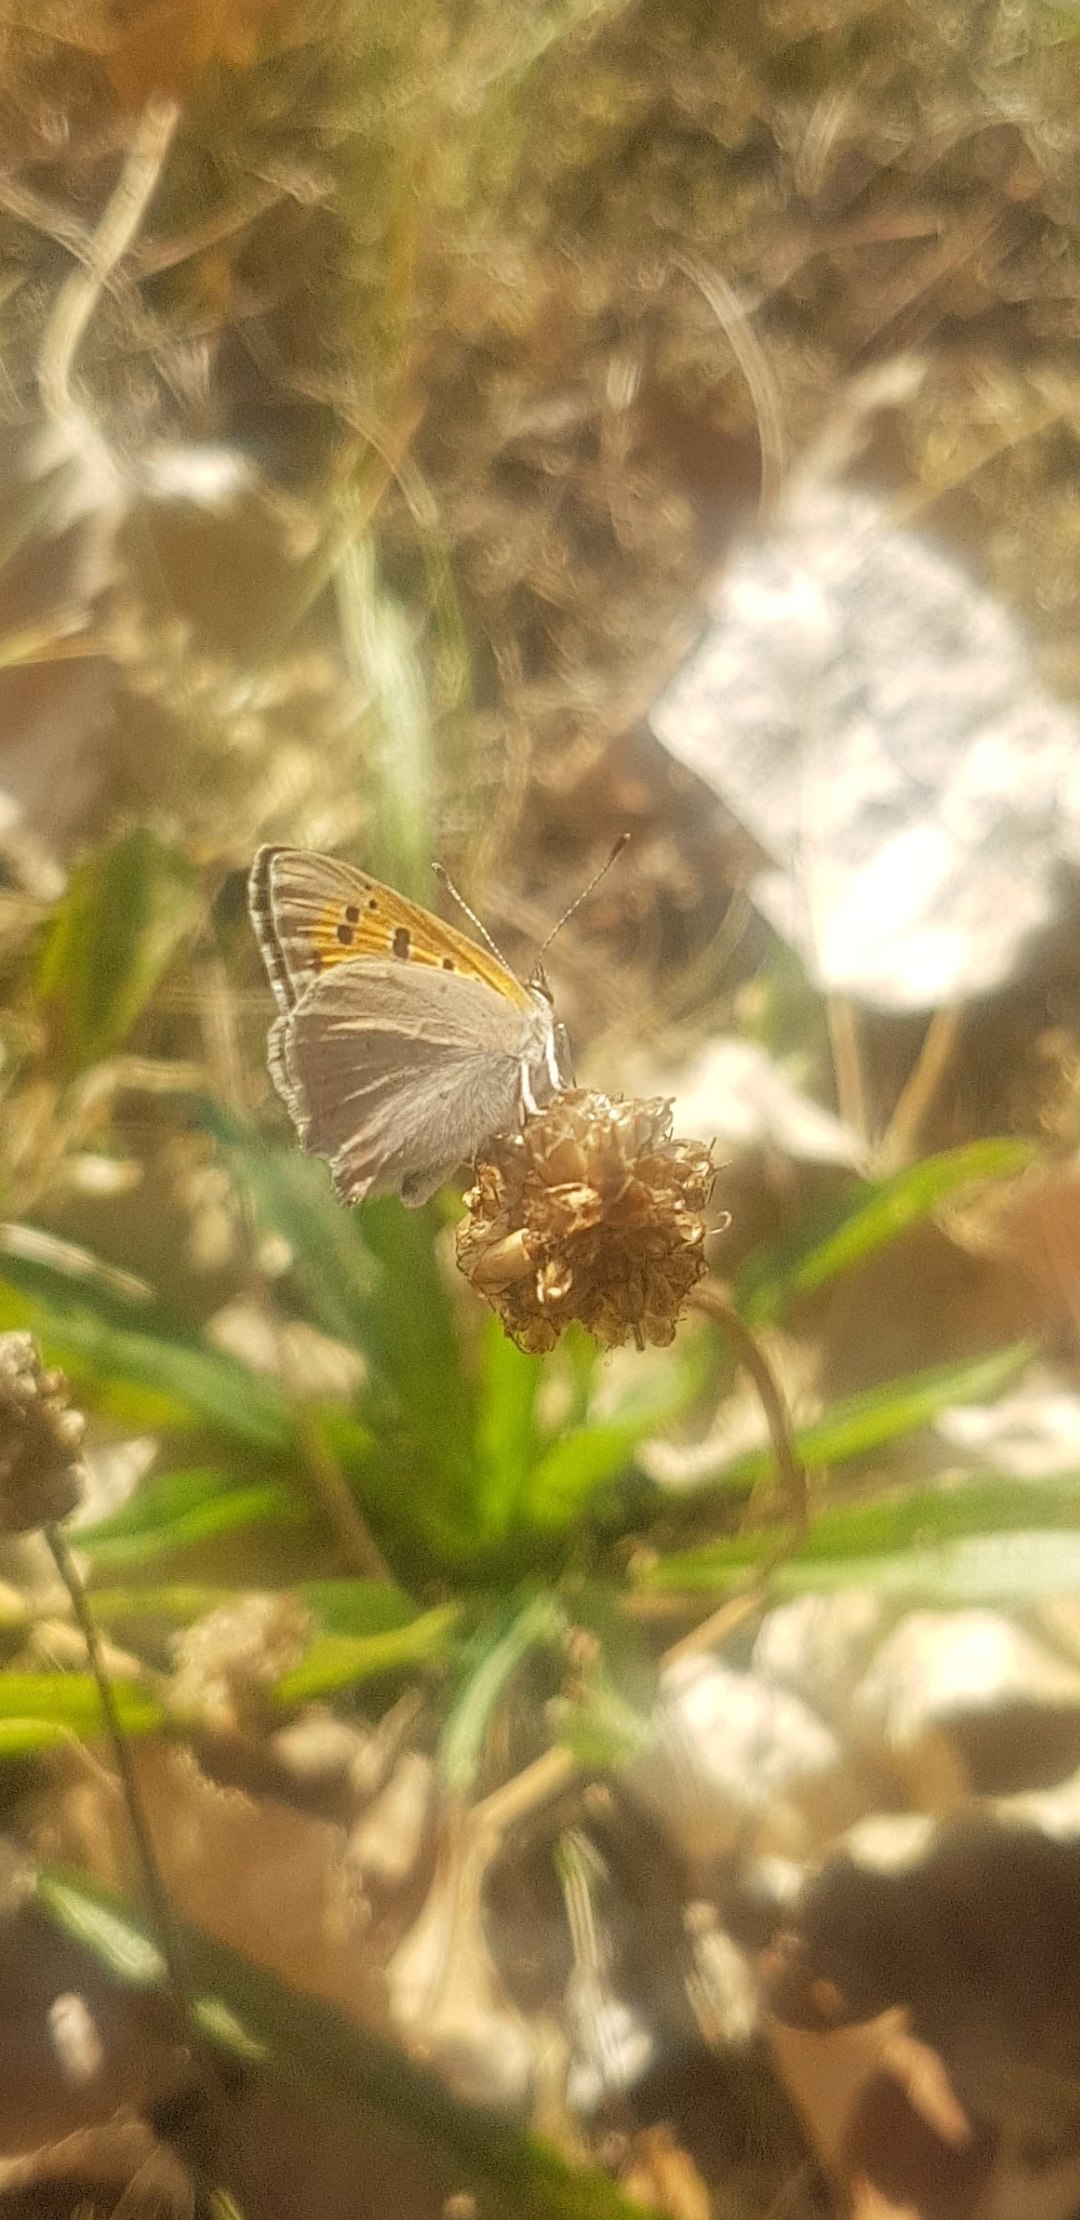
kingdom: Animalia
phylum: Arthropoda
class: Insecta
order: Lepidoptera
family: Lycaenidae
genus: Lycaena
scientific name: Lycaena phlaeas
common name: Lille ildfugl
